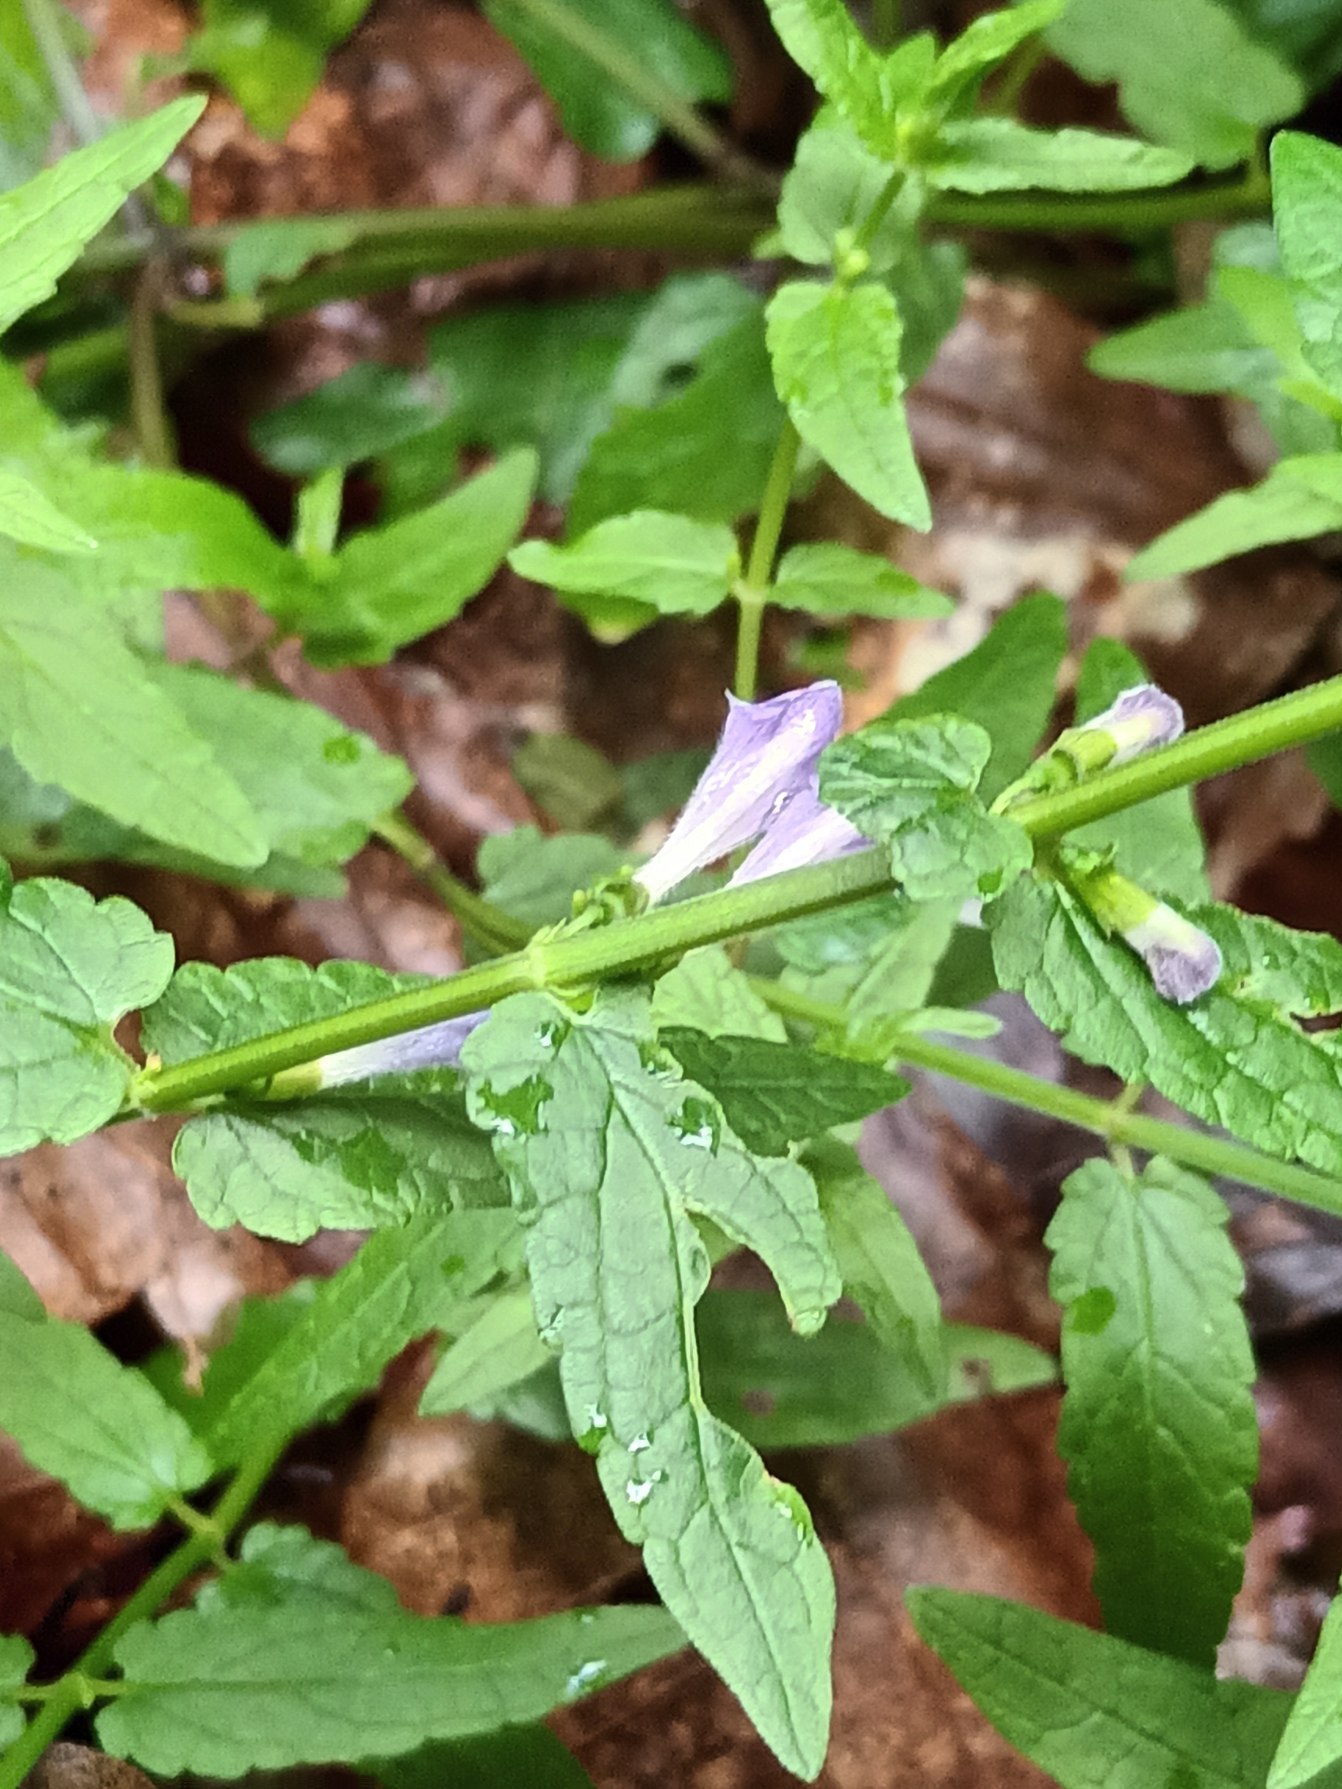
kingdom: Plantae
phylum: Tracheophyta
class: Magnoliopsida
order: Lamiales
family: Lamiaceae
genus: Scutellaria
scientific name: Scutellaria galericulata
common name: Almindelig skjolddrager
